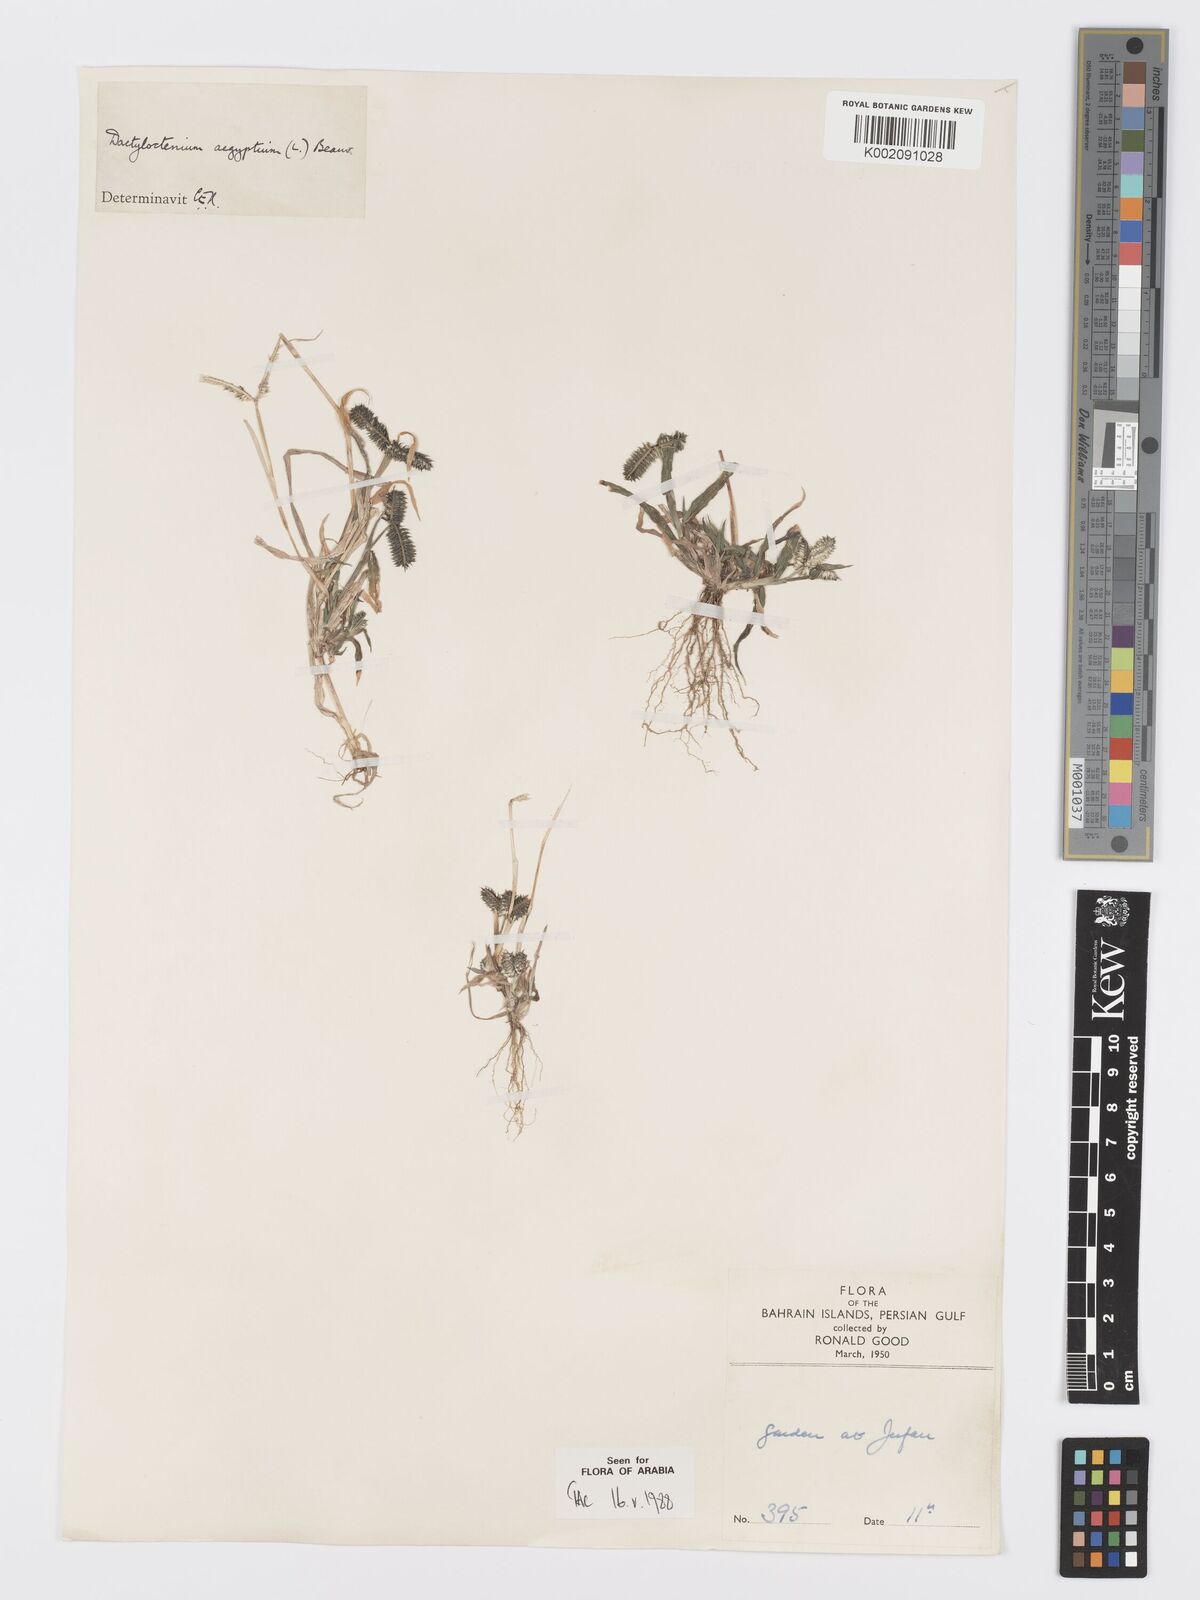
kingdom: Plantae
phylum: Tracheophyta
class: Liliopsida
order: Poales
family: Poaceae
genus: Dactyloctenium
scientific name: Dactyloctenium aegyptium
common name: Egyptian grass
